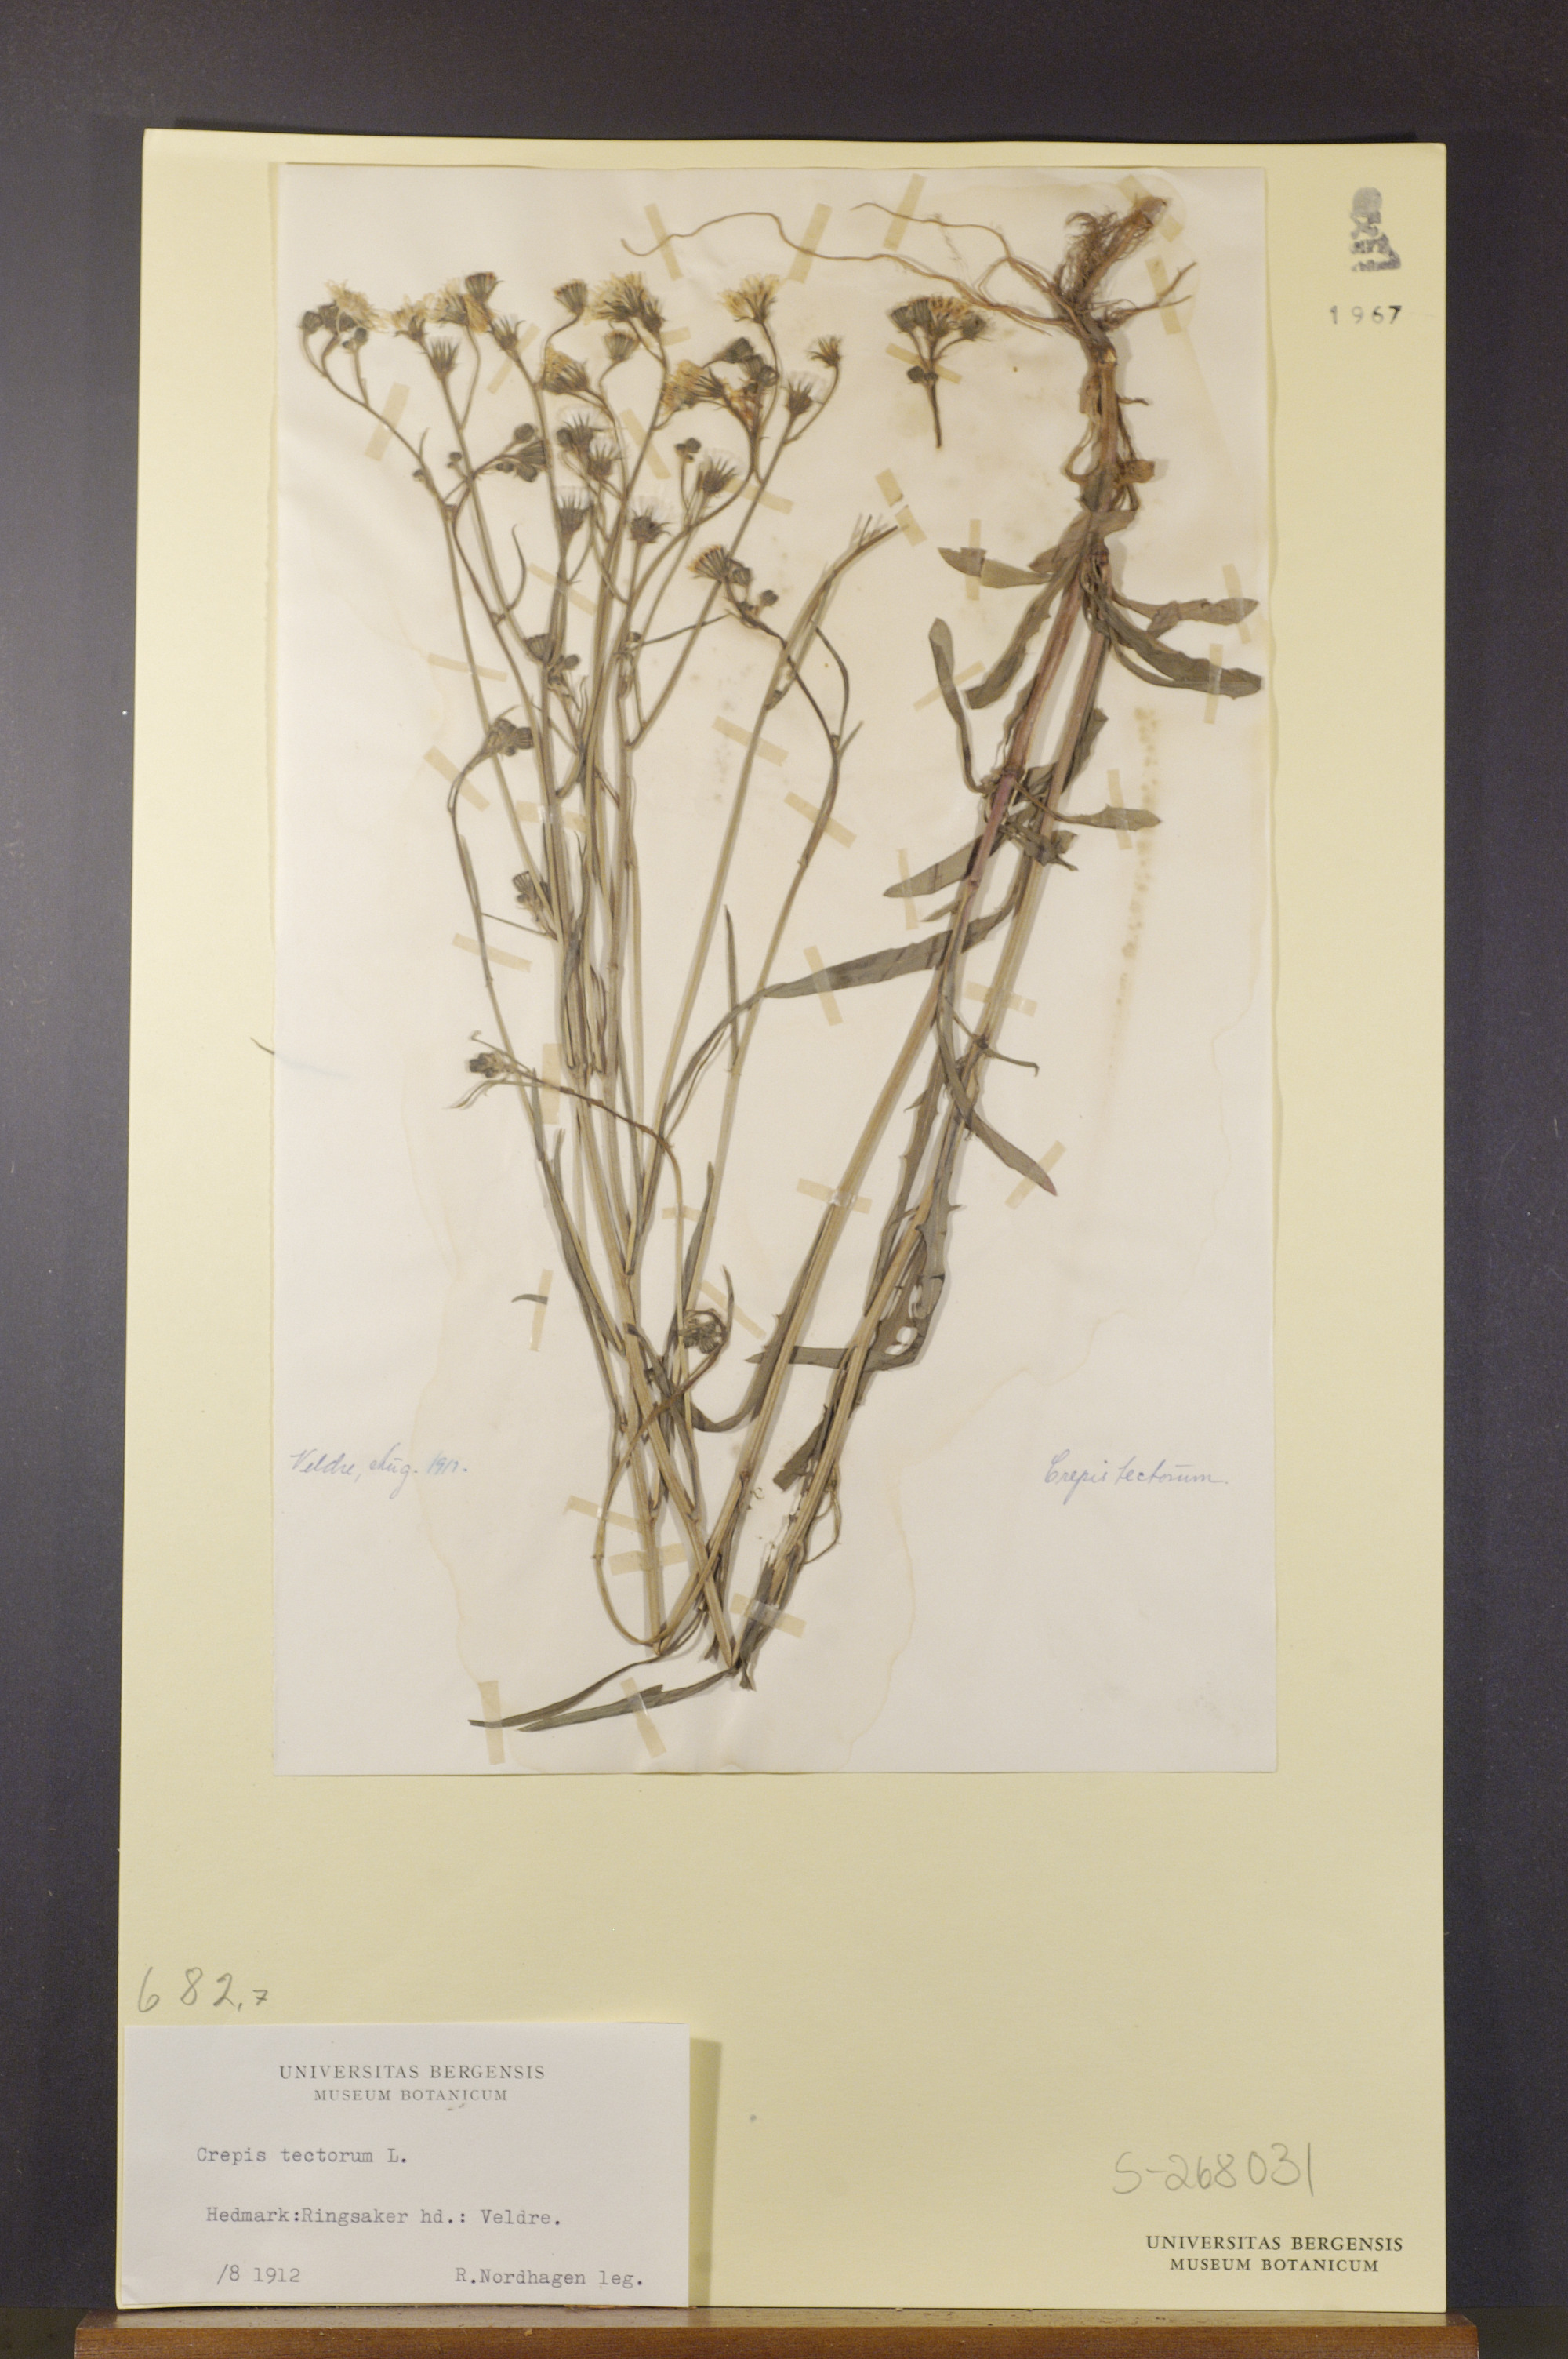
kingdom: Plantae
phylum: Tracheophyta
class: Magnoliopsida
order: Asterales
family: Asteraceae
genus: Crepis
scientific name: Crepis tectorum
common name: Narrow-leaved hawk's-beard
